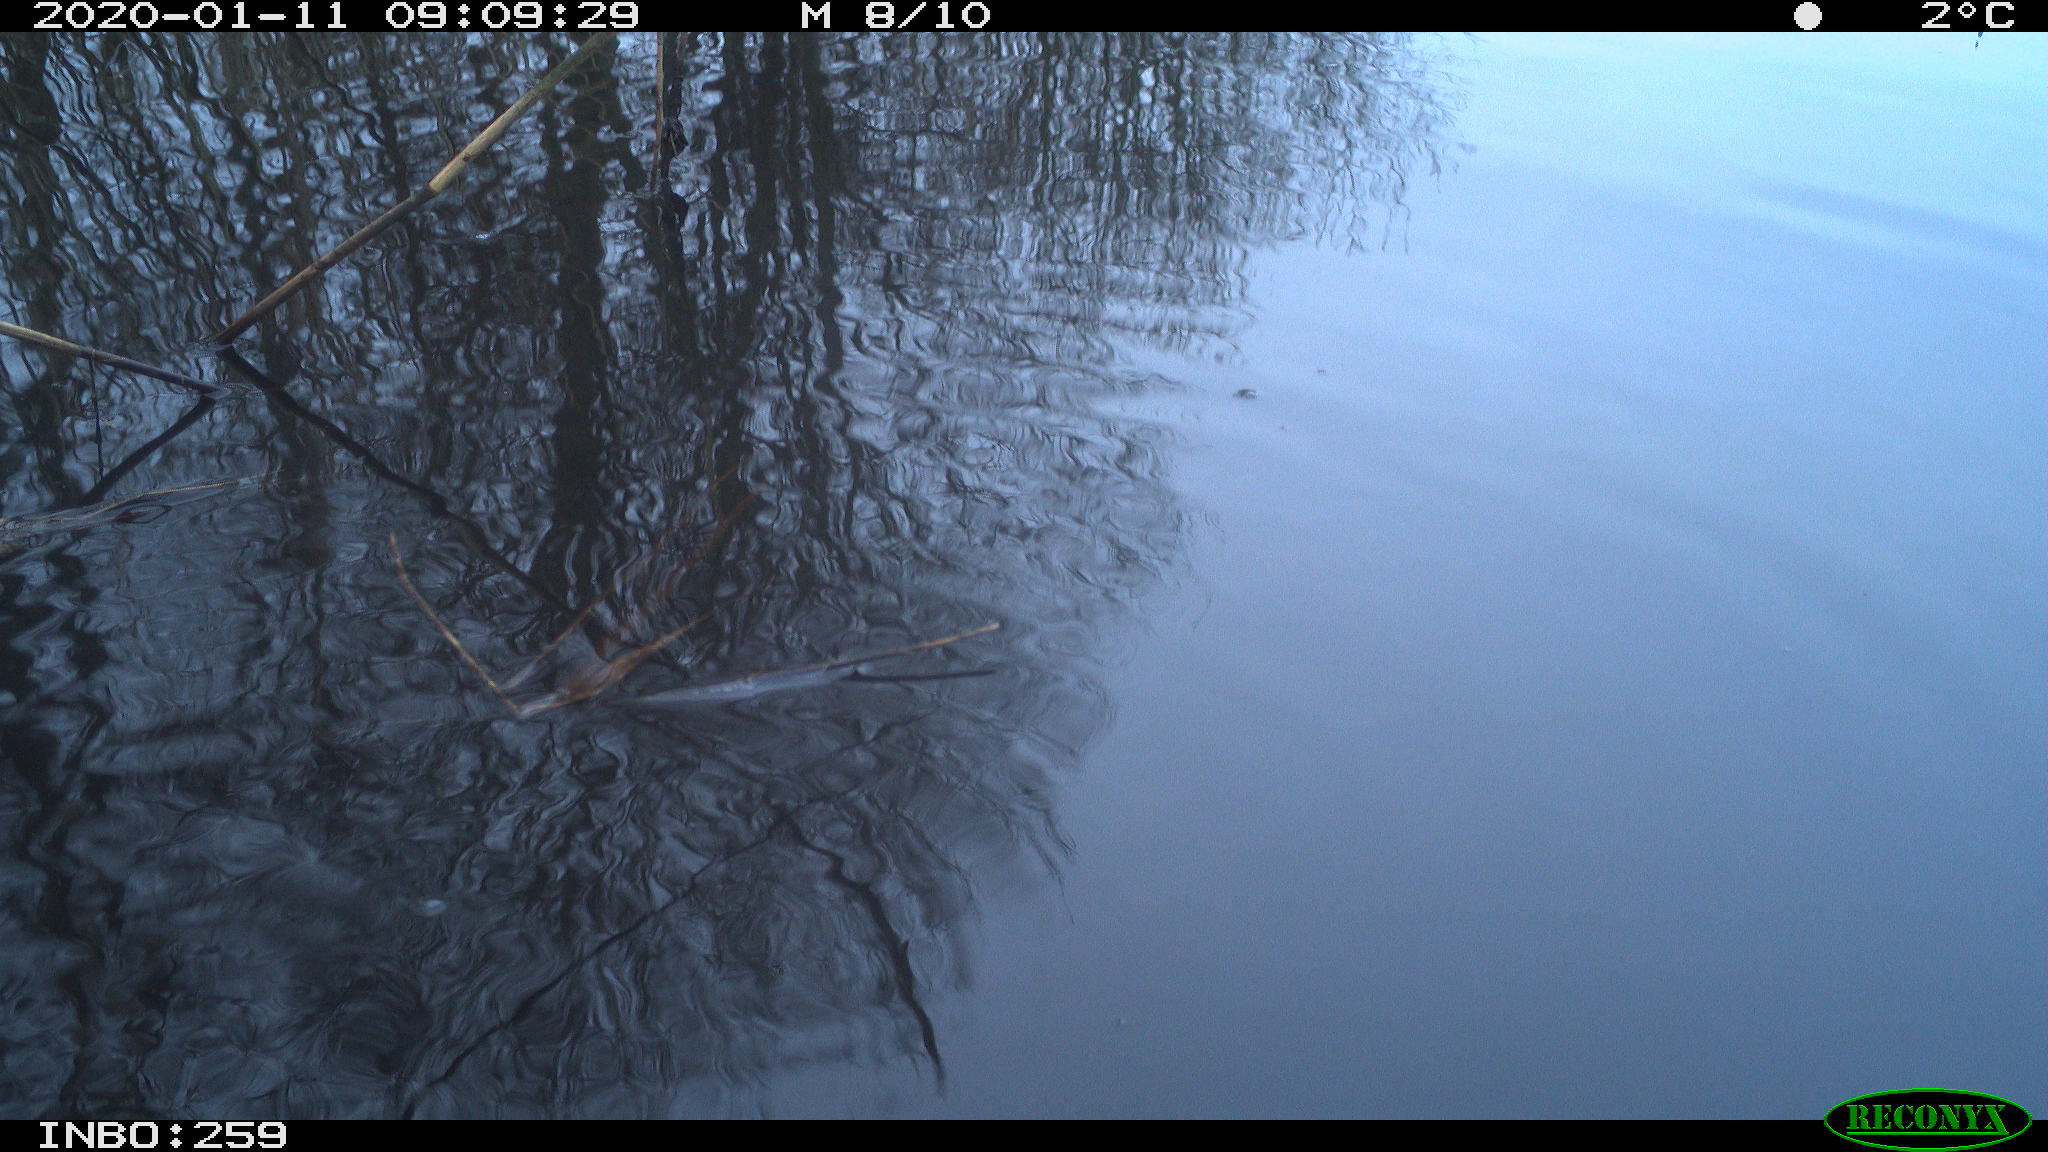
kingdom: Animalia
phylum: Chordata
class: Aves
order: Gruiformes
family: Rallidae
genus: Gallinula
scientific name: Gallinula chloropus
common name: Common moorhen
